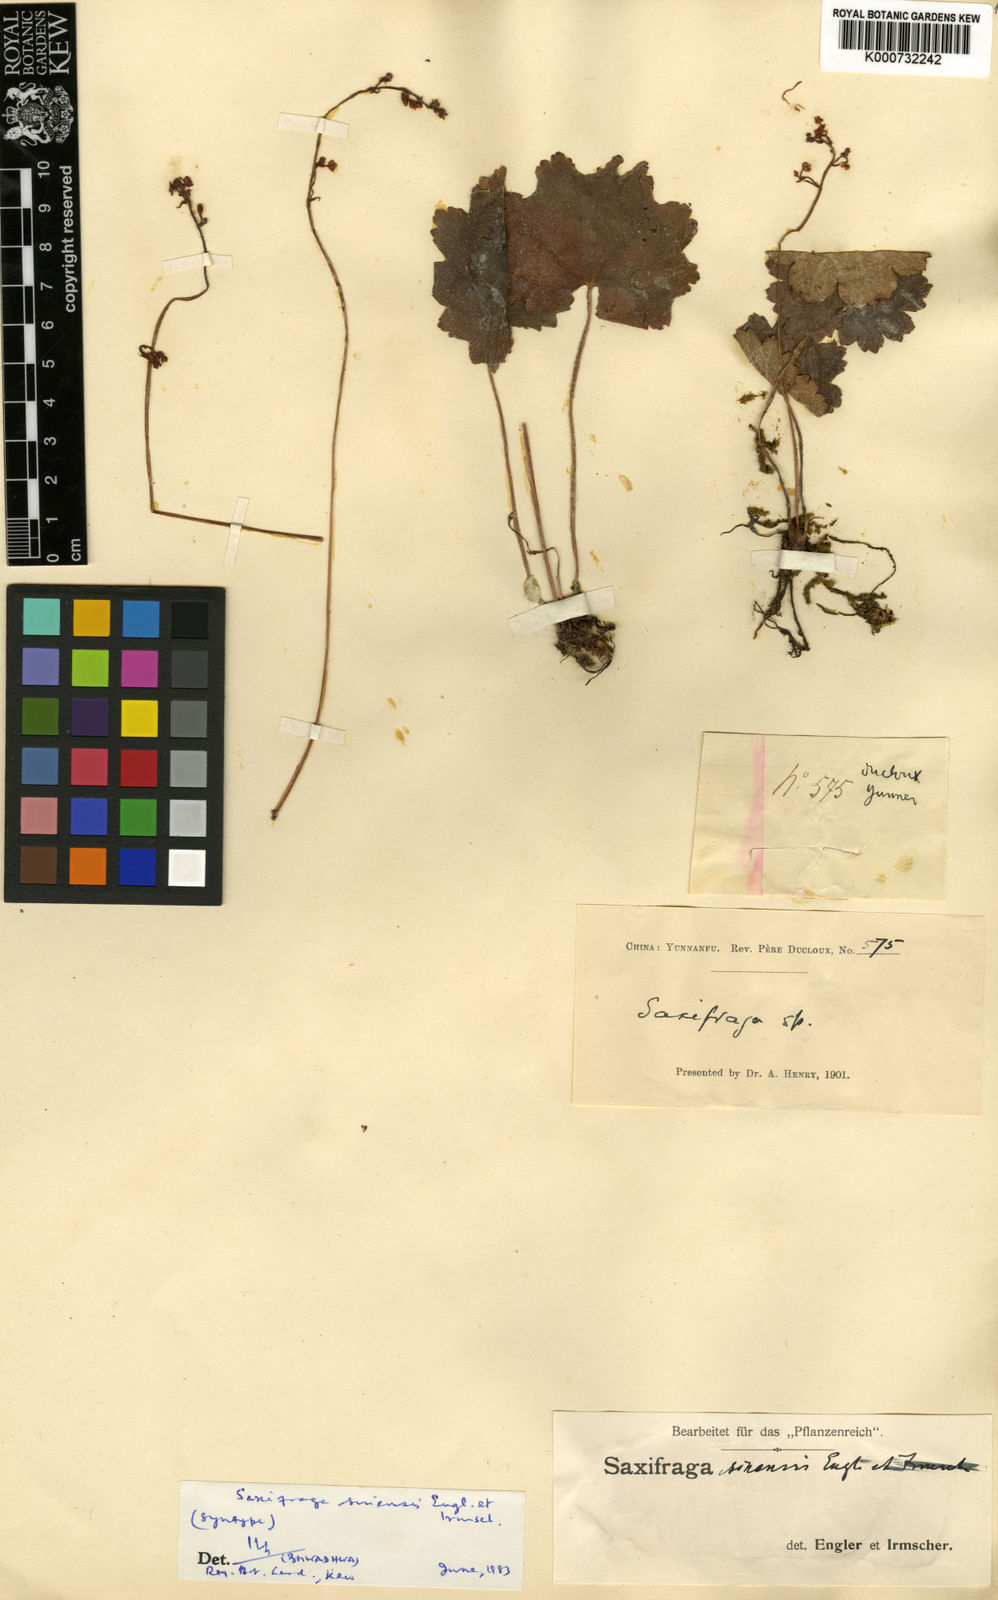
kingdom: Plantae
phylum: Tracheophyta
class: Magnoliopsida
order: Saxifragales
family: Saxifragaceae
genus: Saxifraga
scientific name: Saxifraga rufescens
